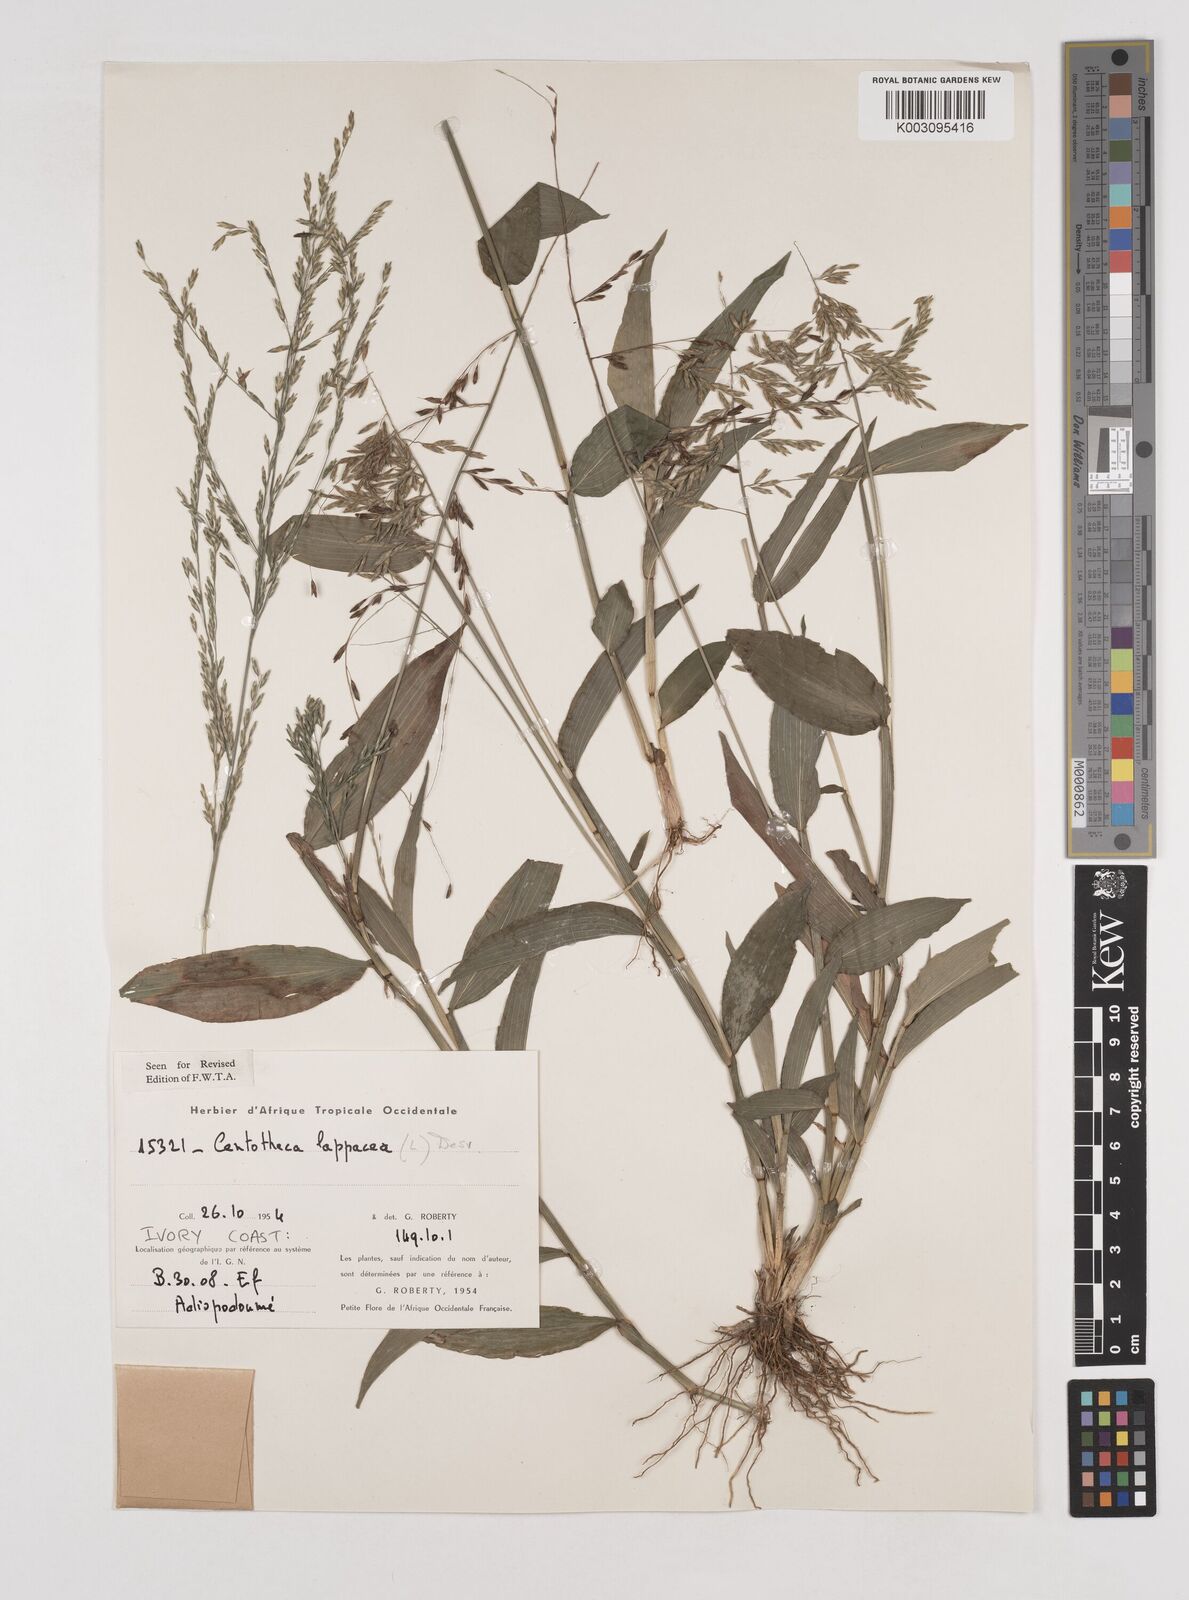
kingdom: Plantae
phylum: Tracheophyta
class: Liliopsida
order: Poales
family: Poaceae
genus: Centotheca
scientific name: Centotheca lappacea
